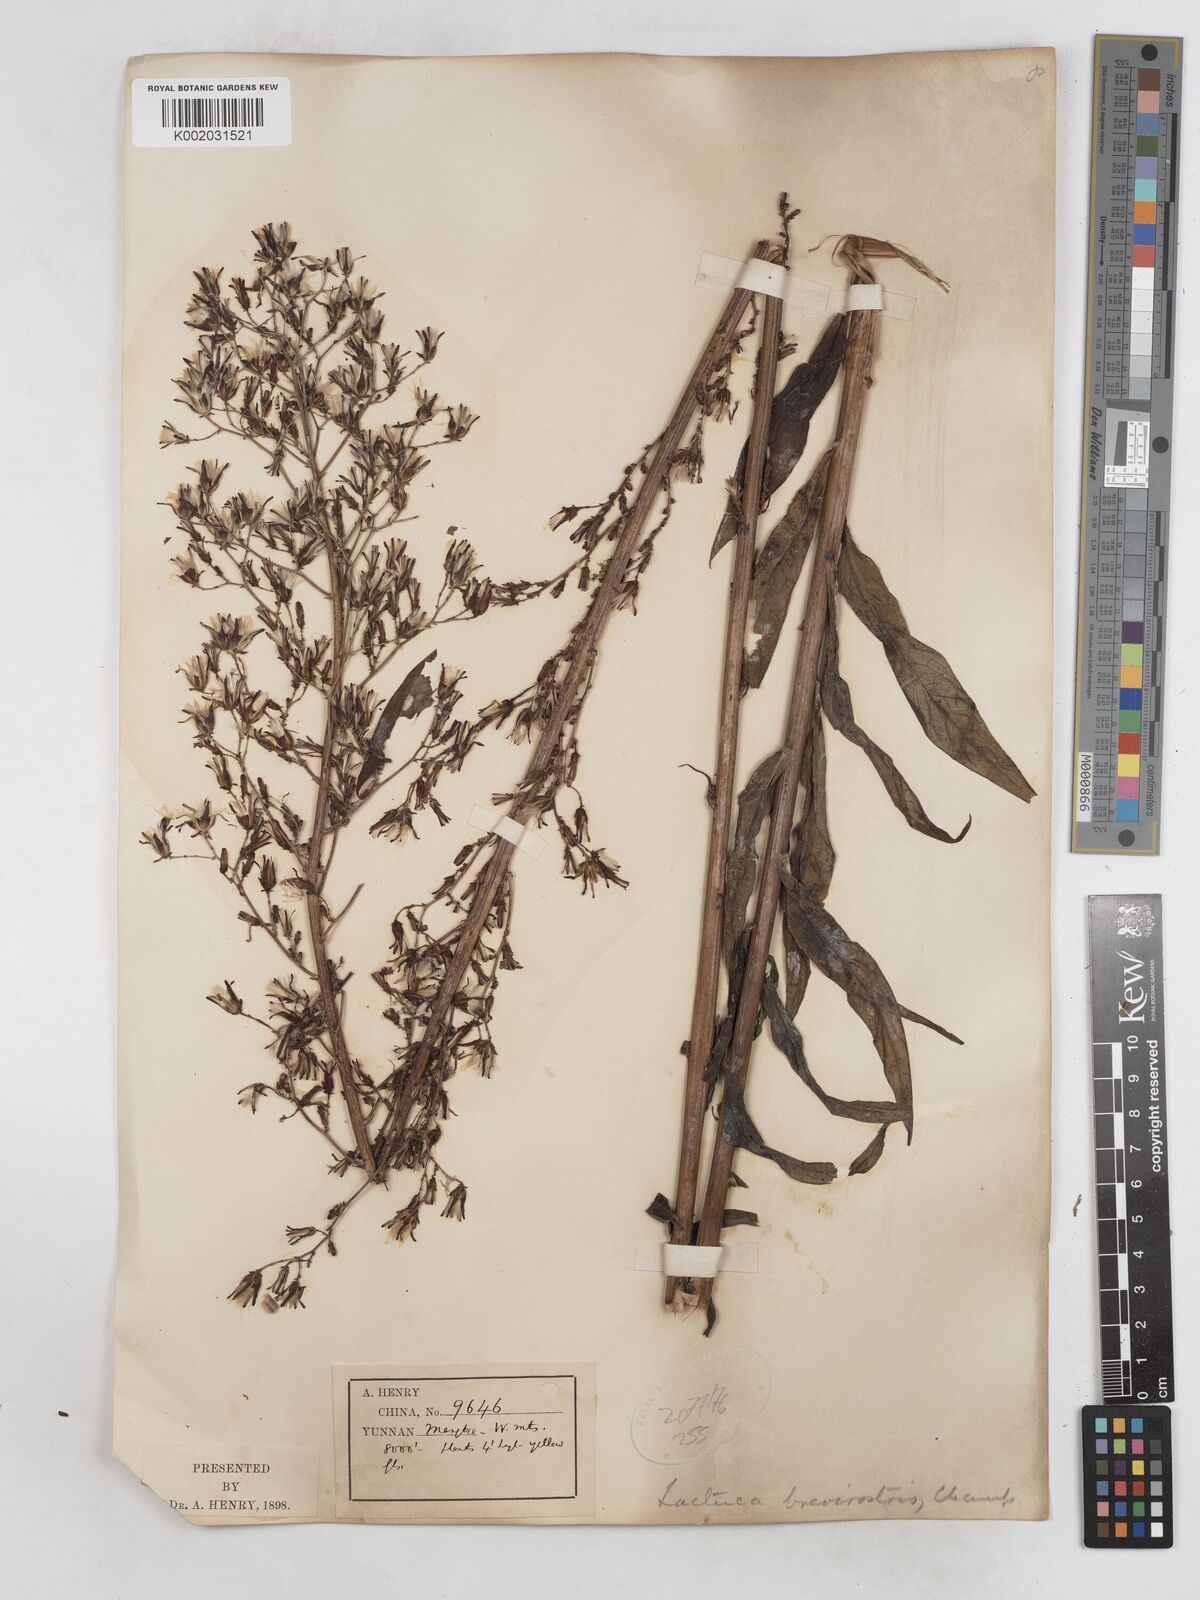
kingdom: Plantae
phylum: Tracheophyta
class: Magnoliopsida
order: Asterales
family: Asteraceae
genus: Lactuca
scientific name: Lactuca indica
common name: Wild lettuce
